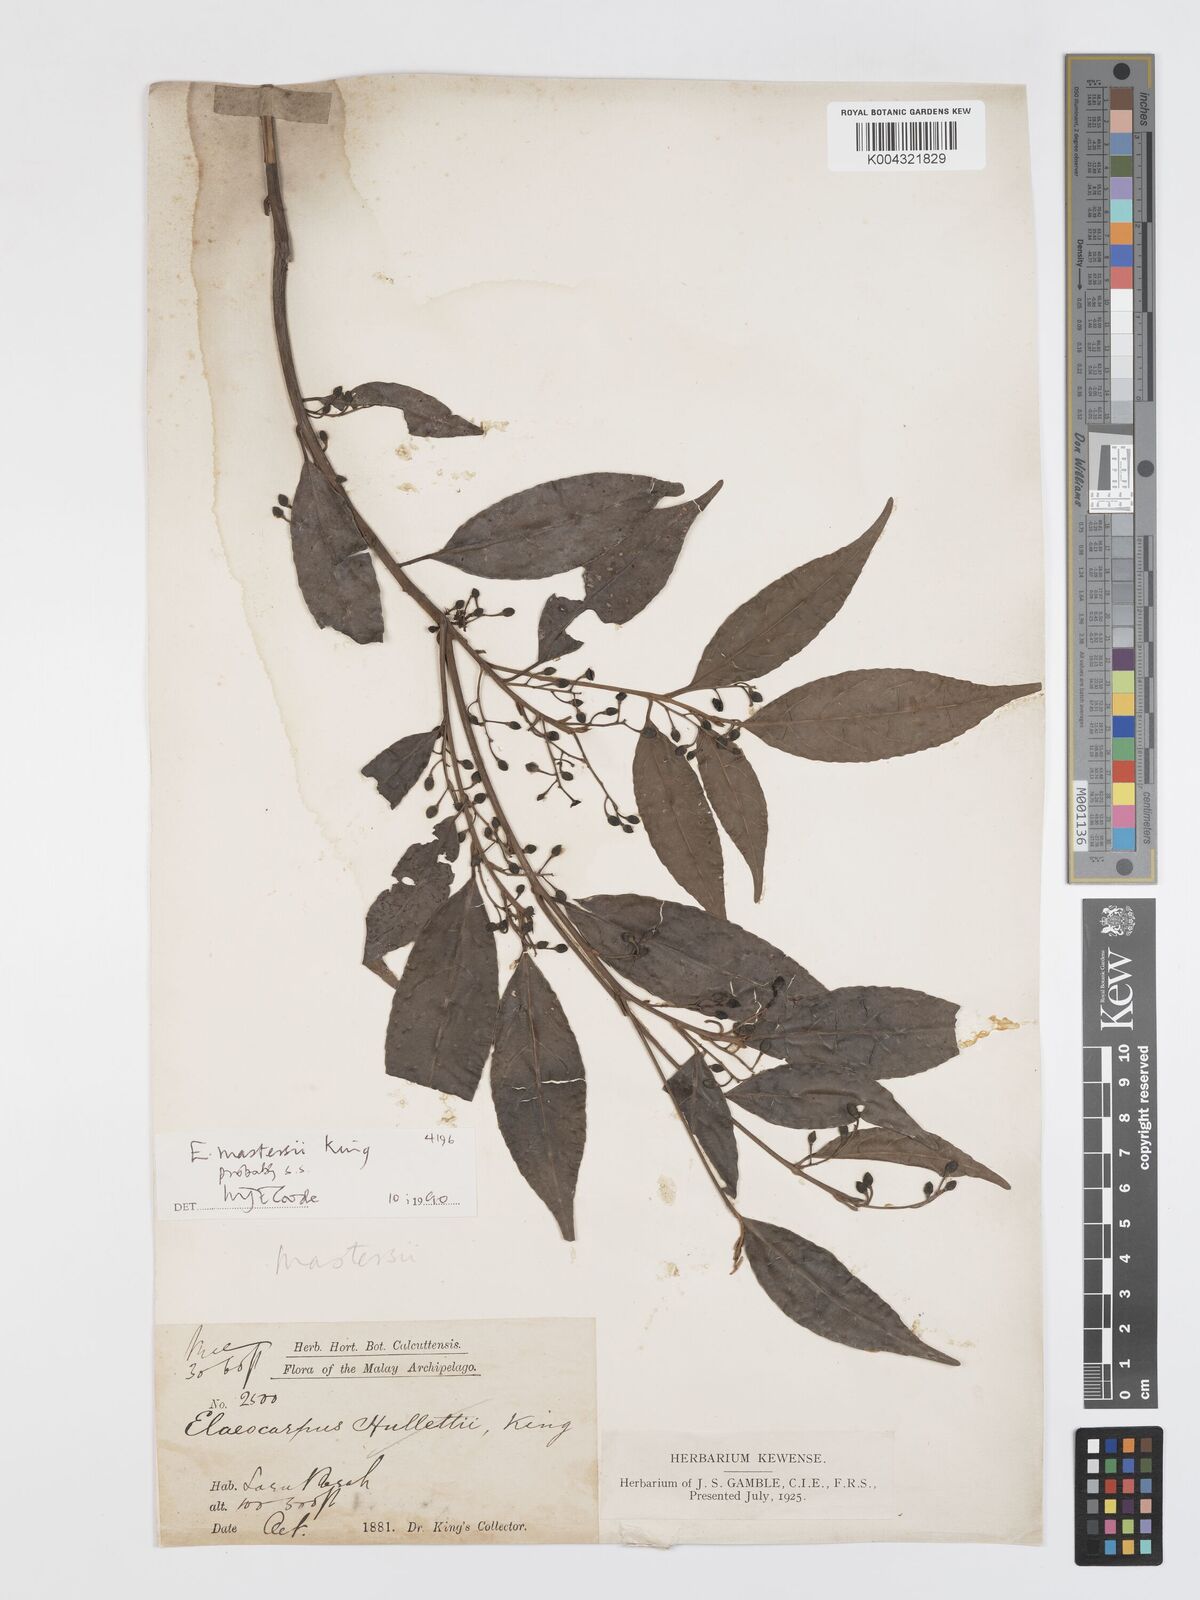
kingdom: Plantae
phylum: Tracheophyta
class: Magnoliopsida
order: Oxalidales
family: Elaeocarpaceae
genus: Elaeocarpus
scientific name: Elaeocarpus mastersii
